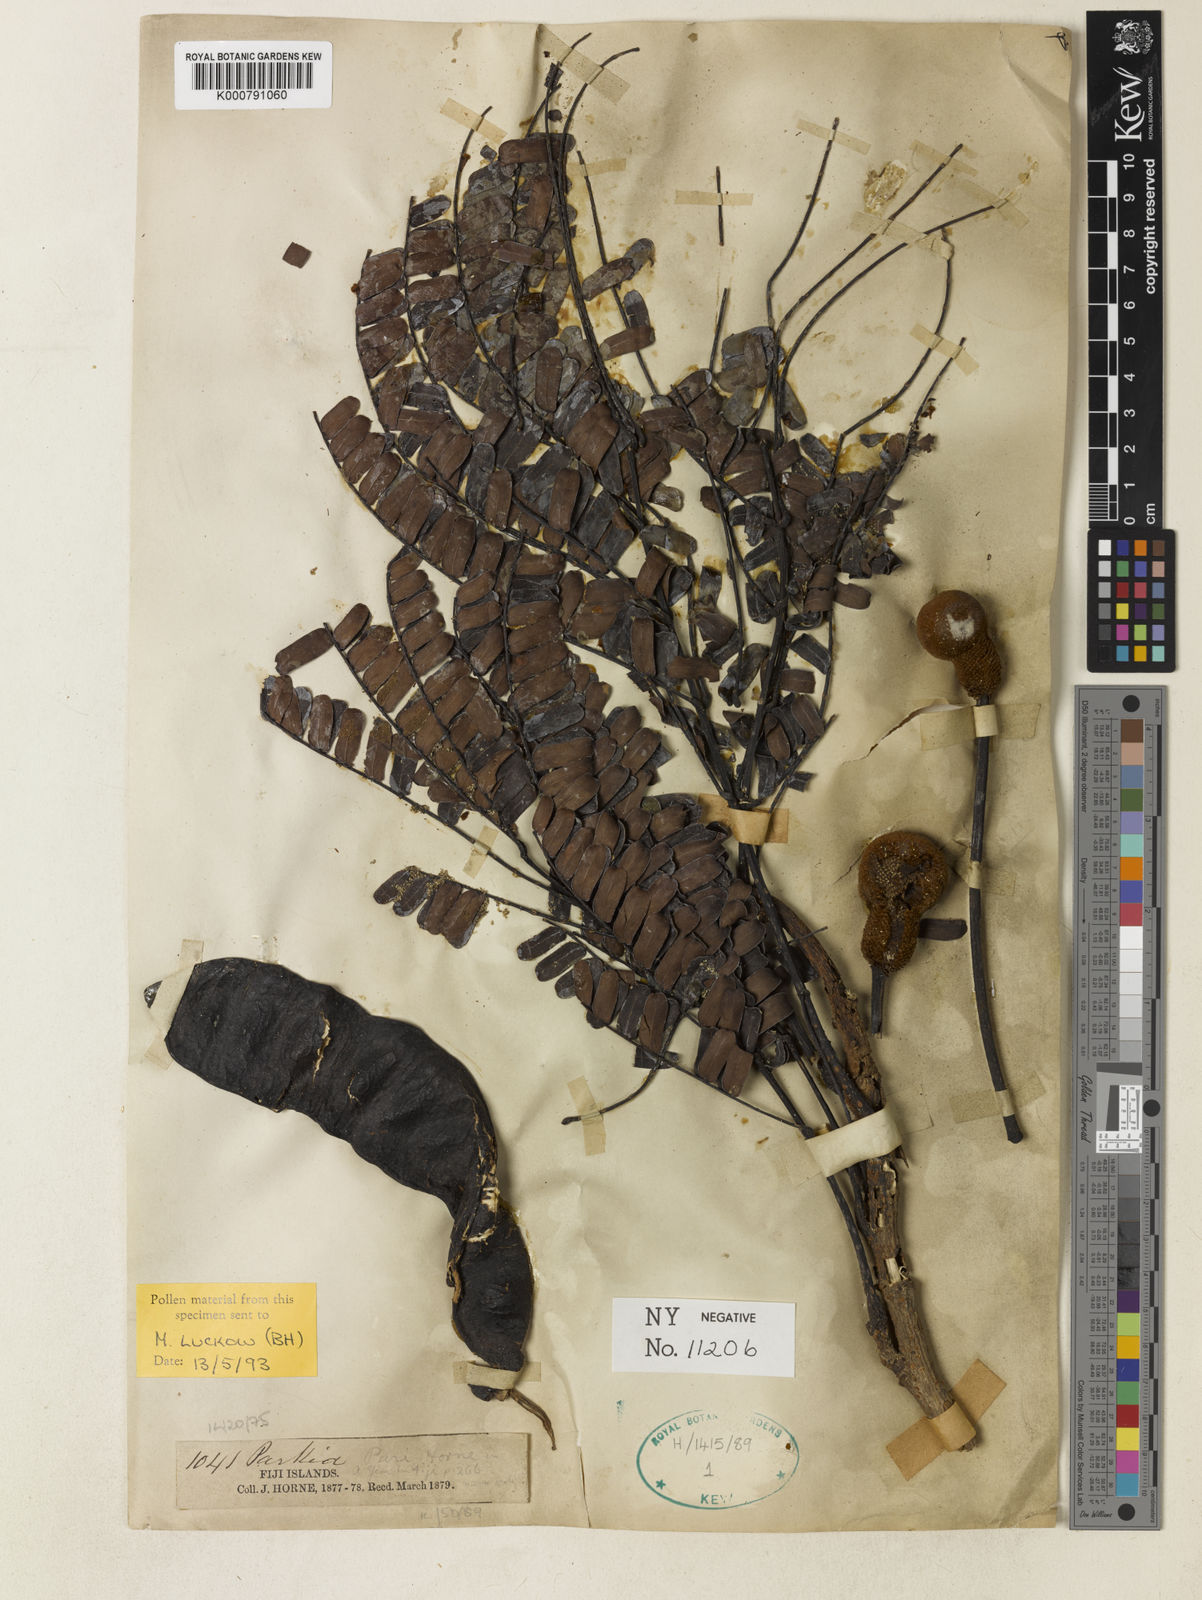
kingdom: Plantae
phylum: Tracheophyta
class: Magnoliopsida
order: Fabales
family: Fabaceae
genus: Parkia
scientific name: Parkia parrii
